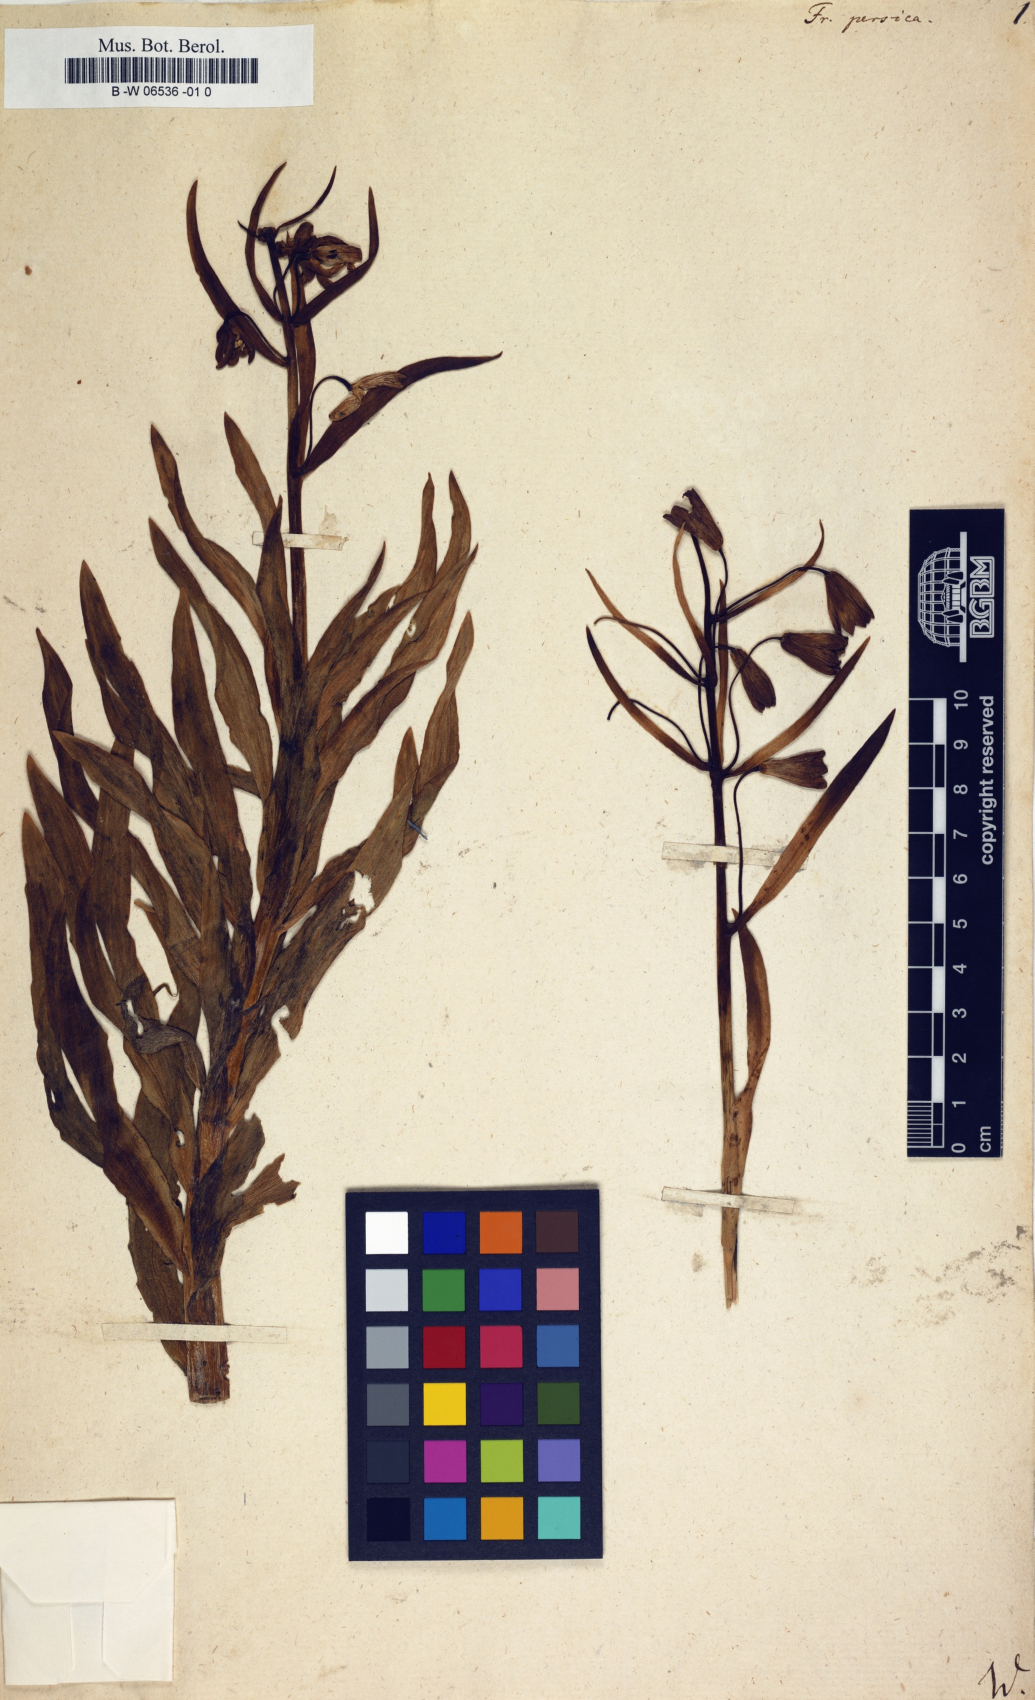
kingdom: Plantae
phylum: Tracheophyta
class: Liliopsida
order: Liliales
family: Liliaceae
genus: Fritillaria
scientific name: Fritillaria persica
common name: Persian fritillary
